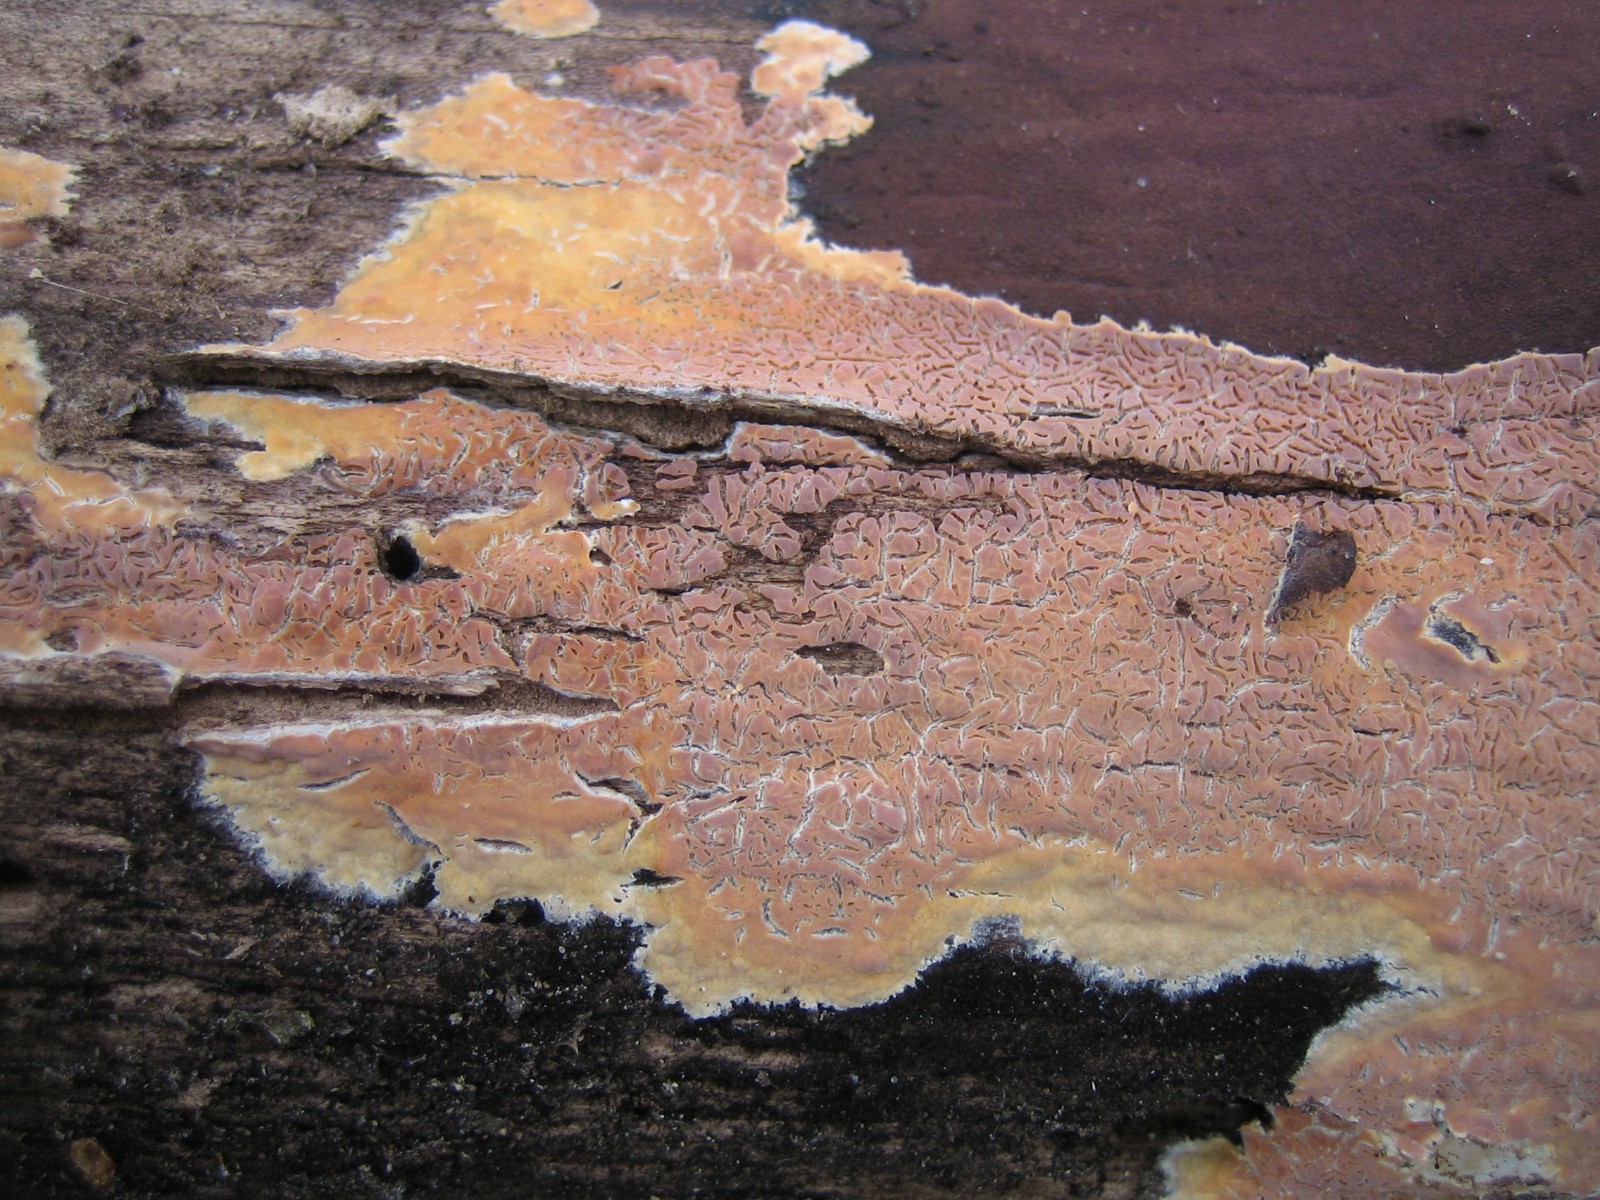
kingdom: Fungi
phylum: Basidiomycota
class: Agaricomycetes
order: Russulales
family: Peniophoraceae
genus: Peniophora
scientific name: Peniophora incarnata
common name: laksefarvet voksskind
